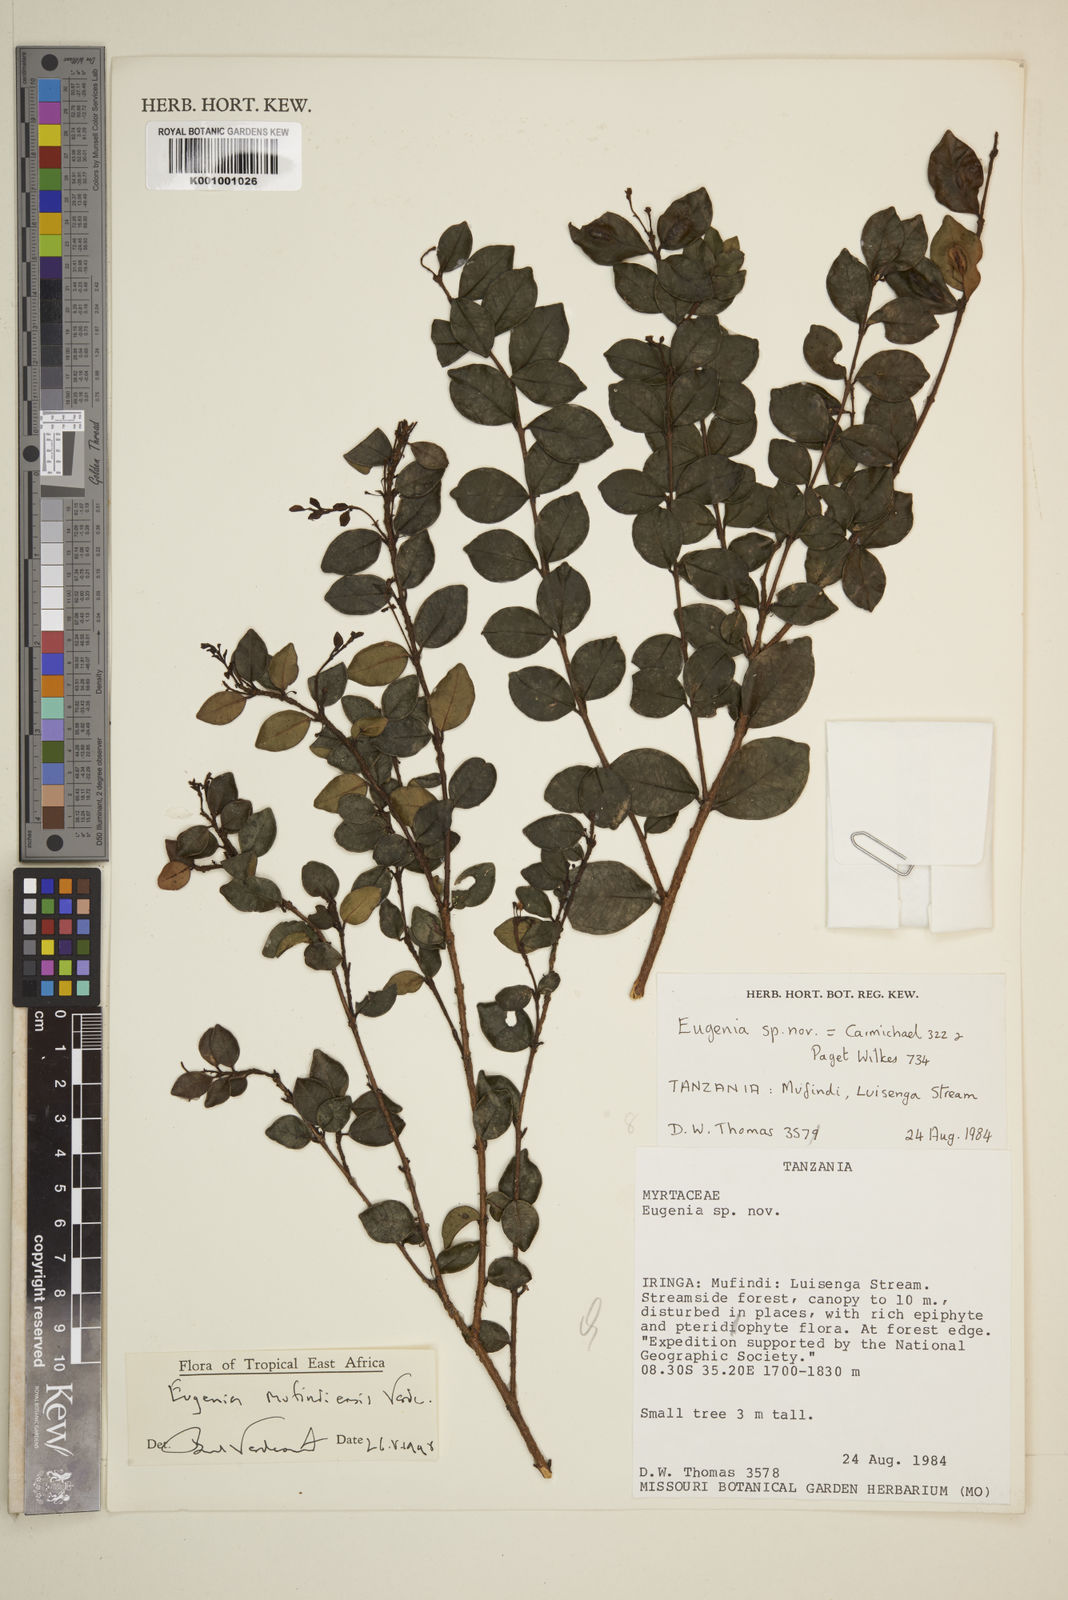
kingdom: Plantae
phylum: Tracheophyta
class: Magnoliopsida
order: Myrtales
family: Myrtaceae
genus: Eugenia
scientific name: Eugenia mufindiensis
